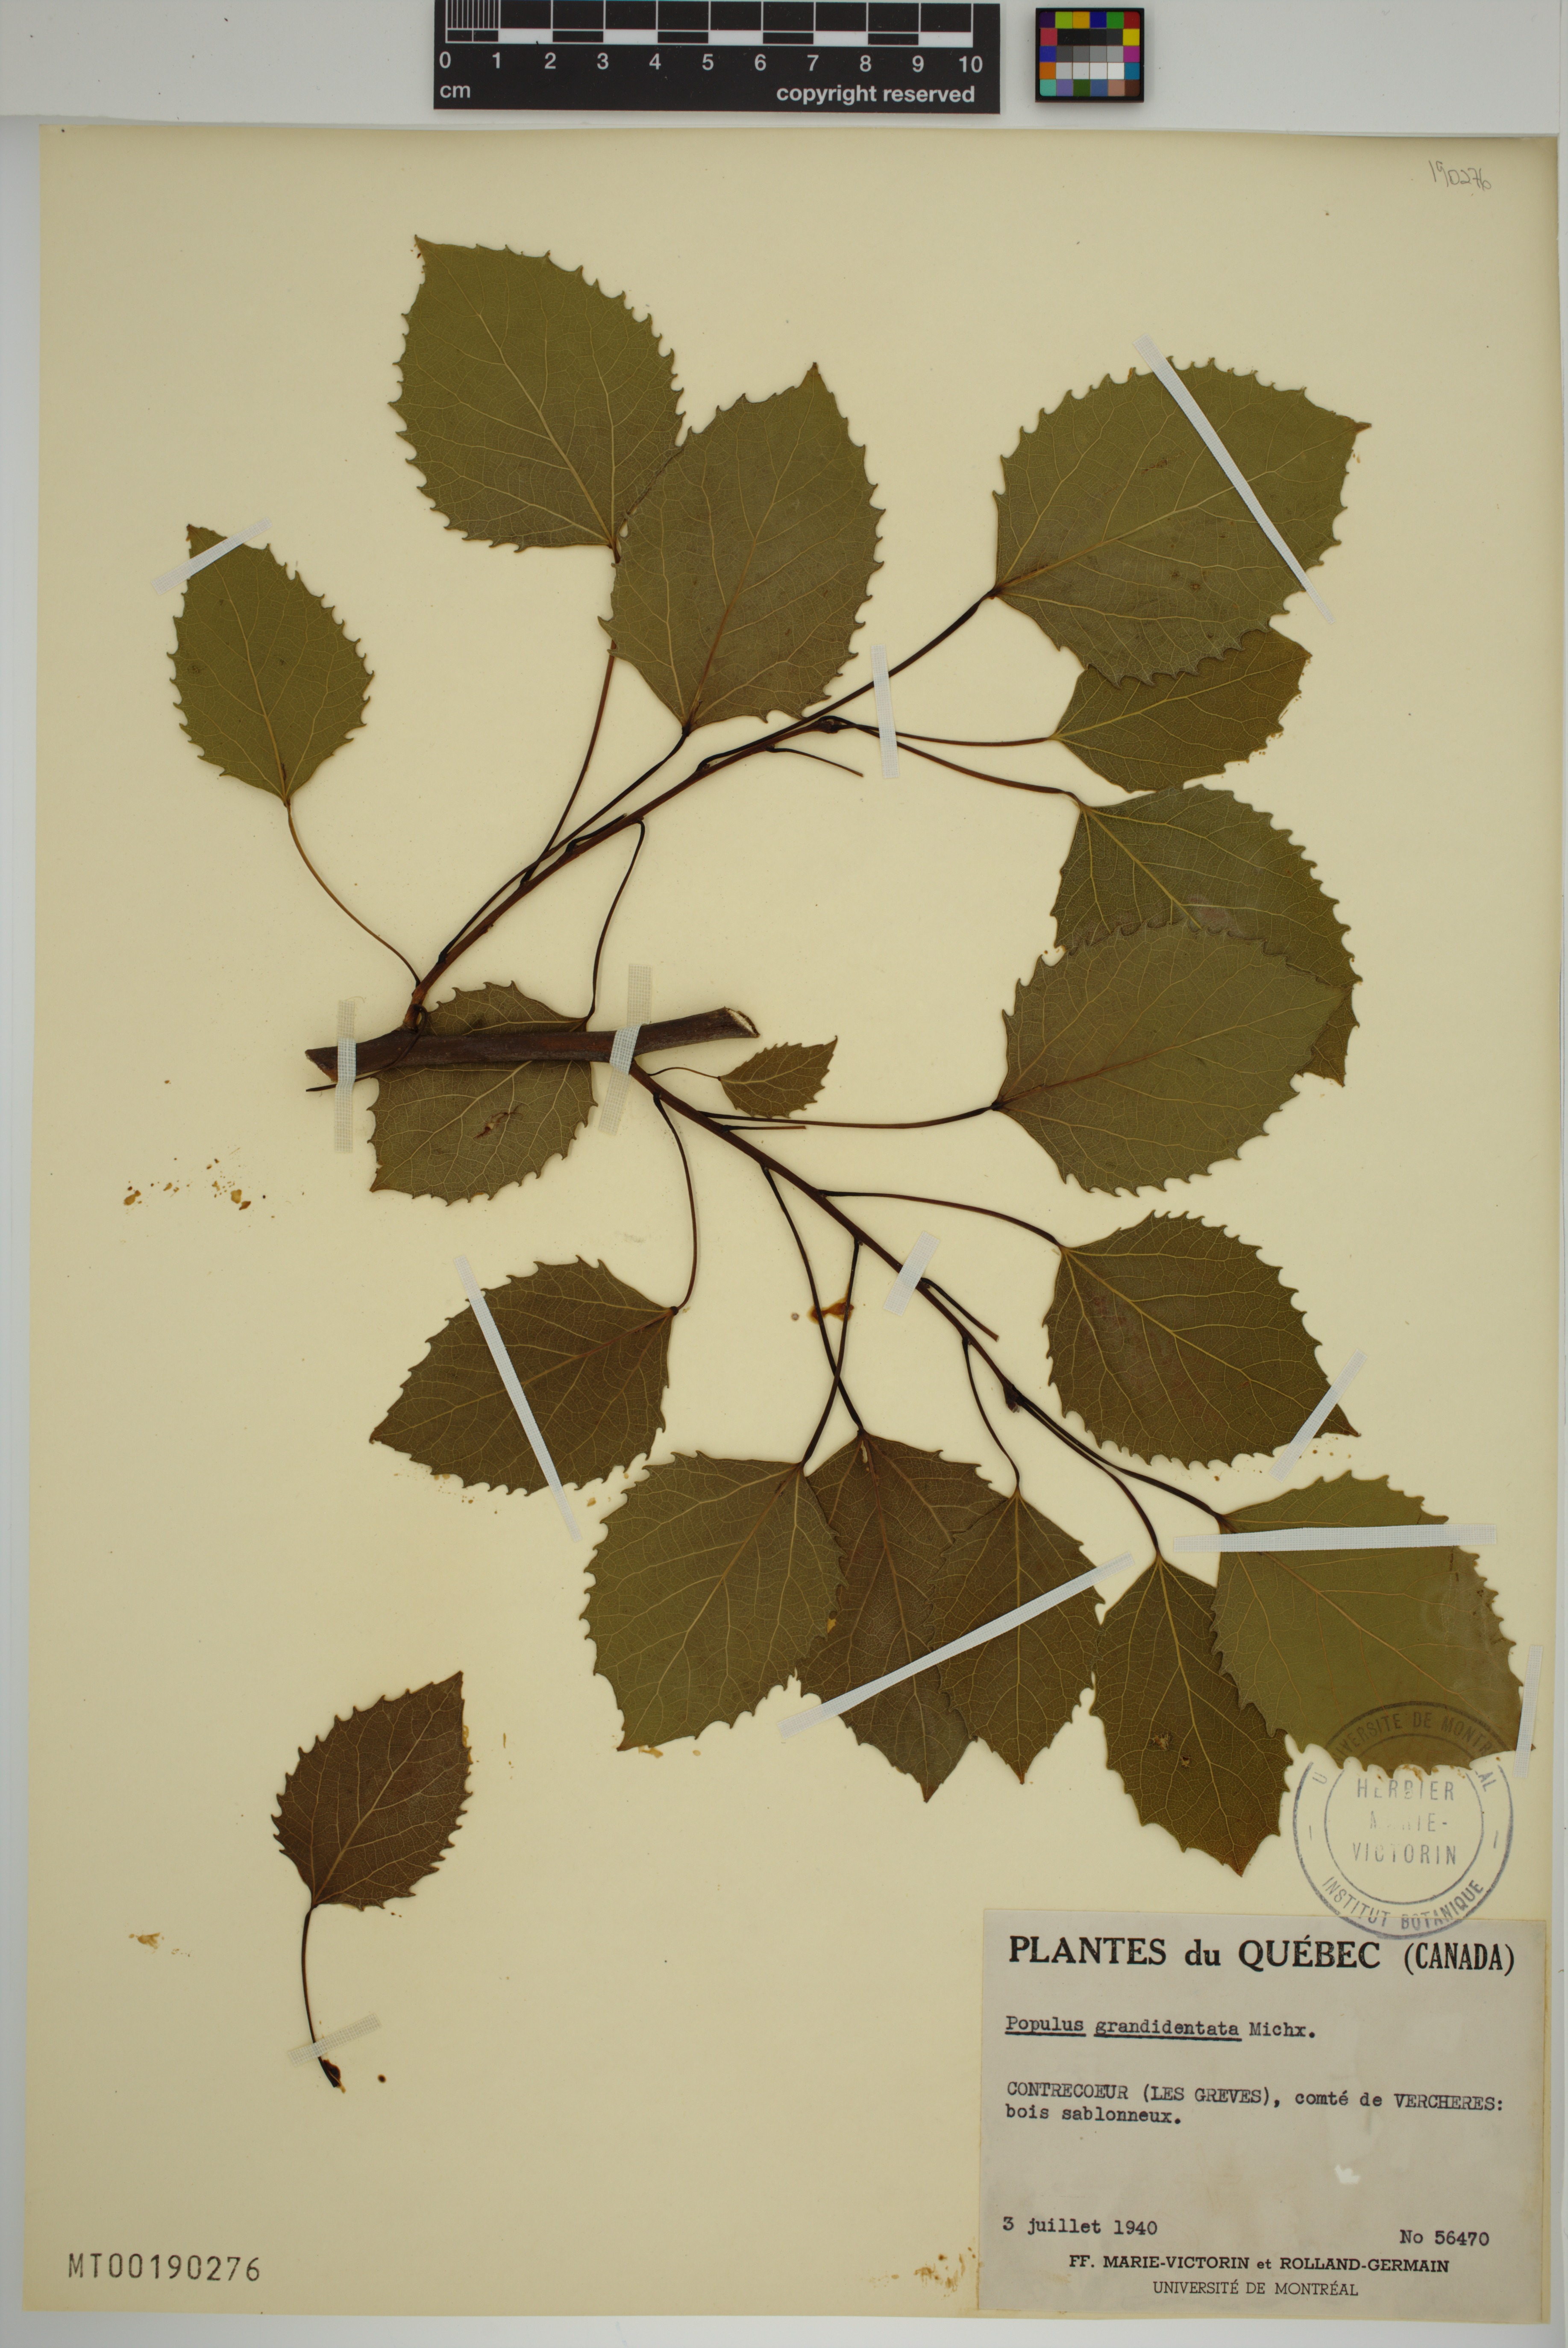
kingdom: Plantae
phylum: Tracheophyta
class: Magnoliopsida
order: Malpighiales
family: Salicaceae
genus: Populus
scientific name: Populus grandidentata
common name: Bigtooth aspen
